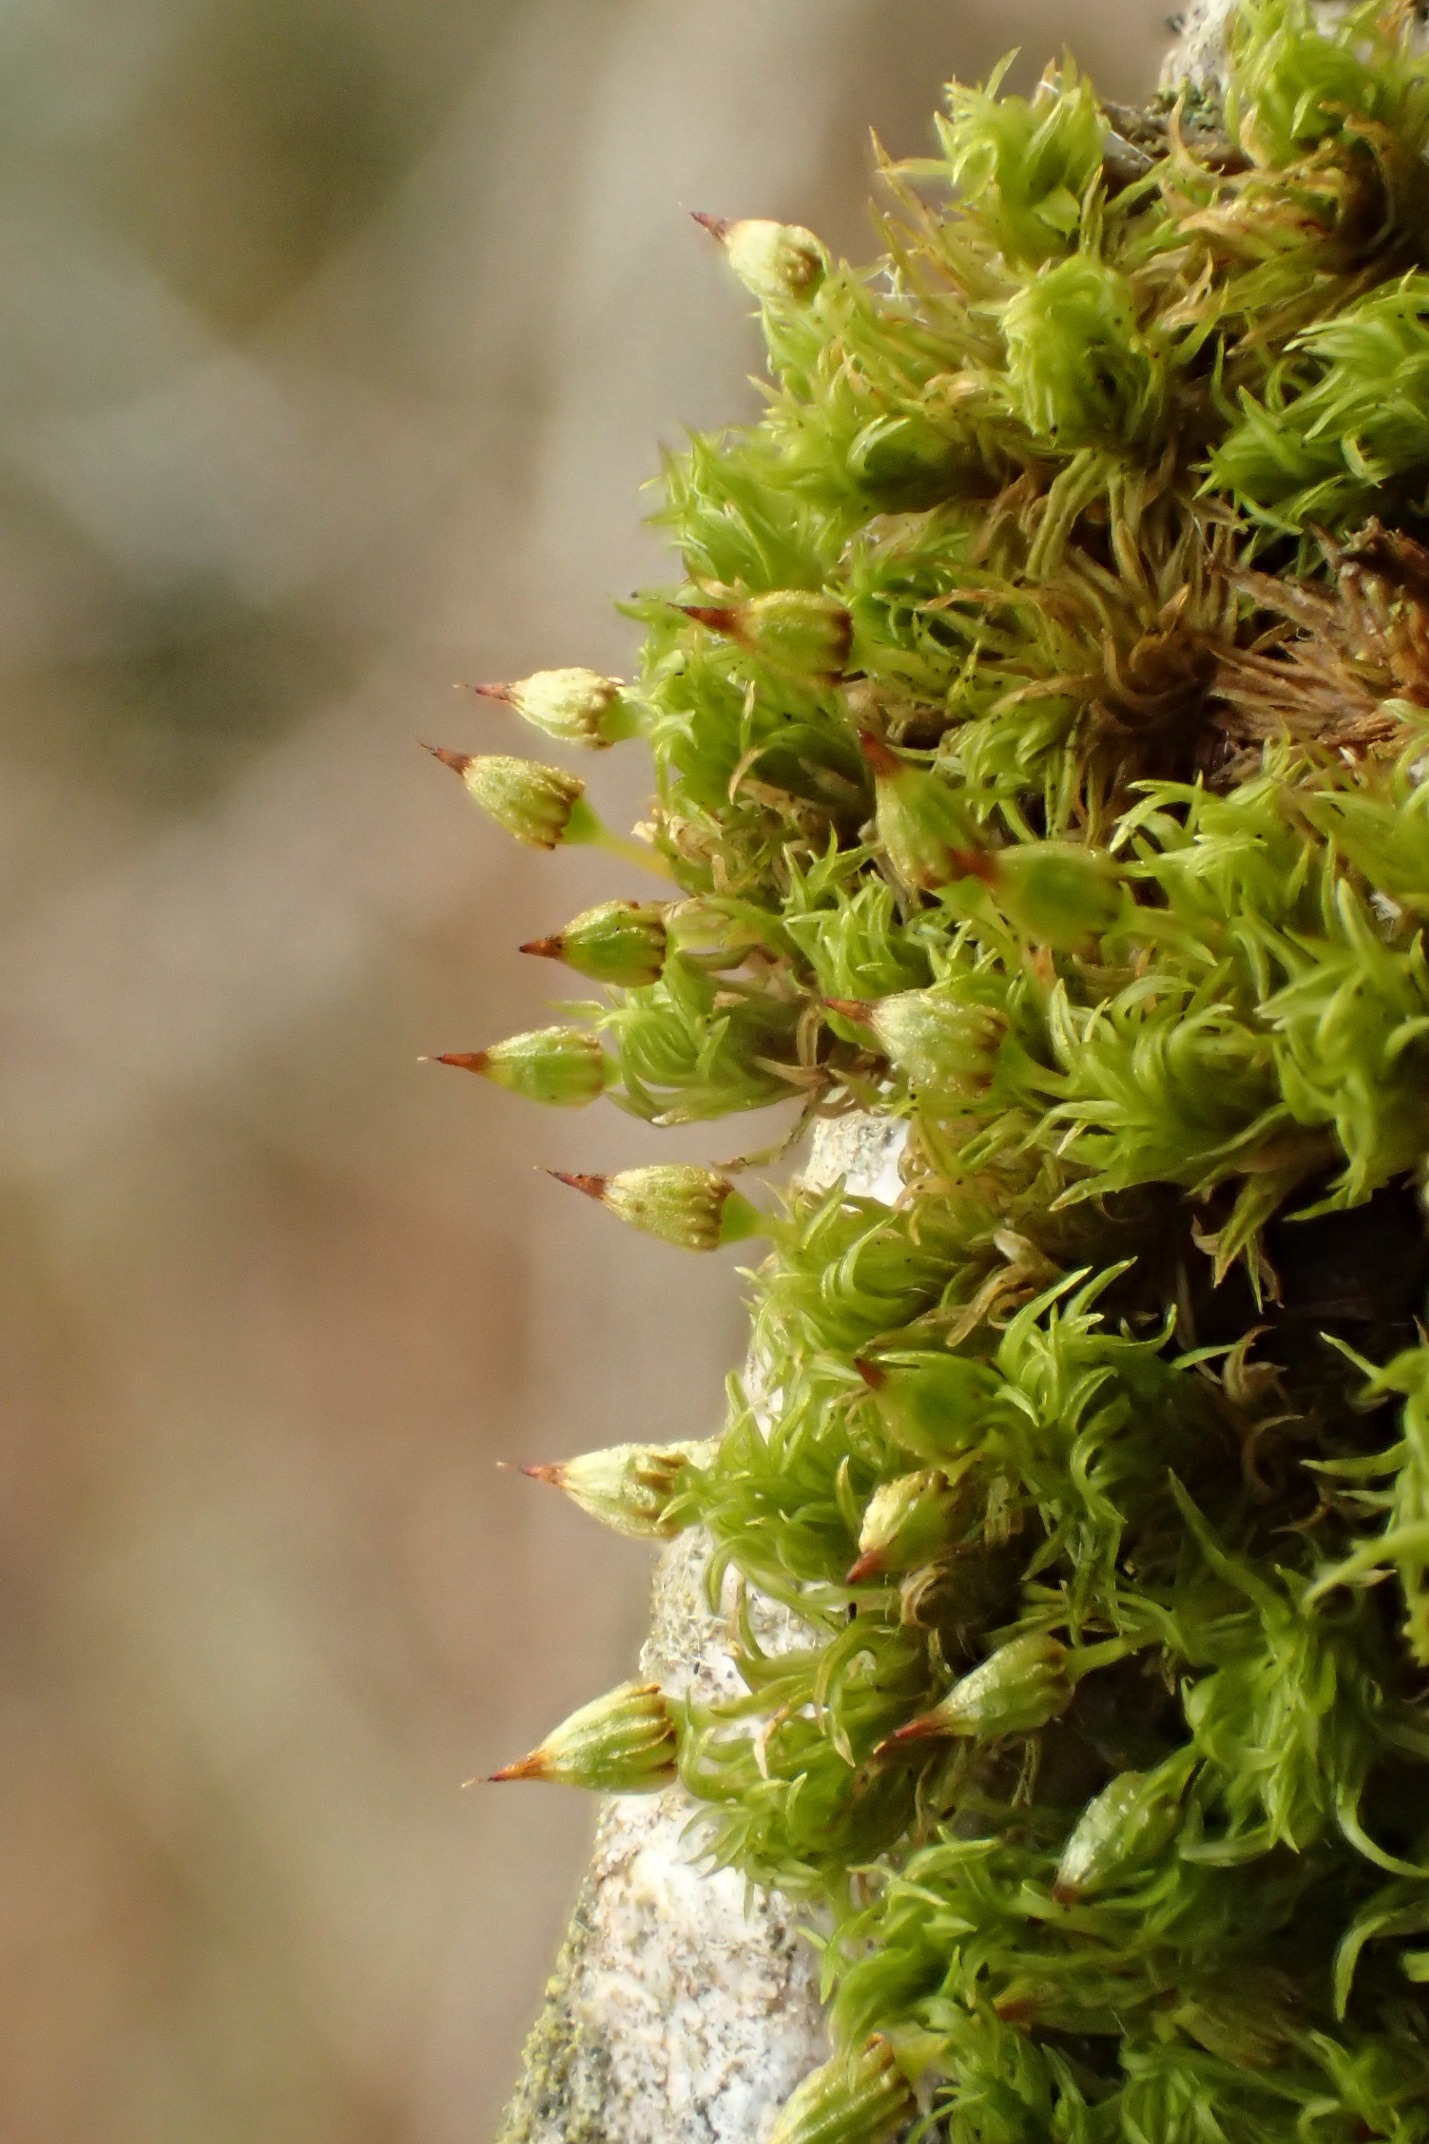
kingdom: Plantae
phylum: Bryophyta
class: Bryopsida
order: Orthotrichales
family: Orthotrichaceae
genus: Orthotrichum
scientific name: Orthotrichum pulchellum
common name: Smuk furehætte
